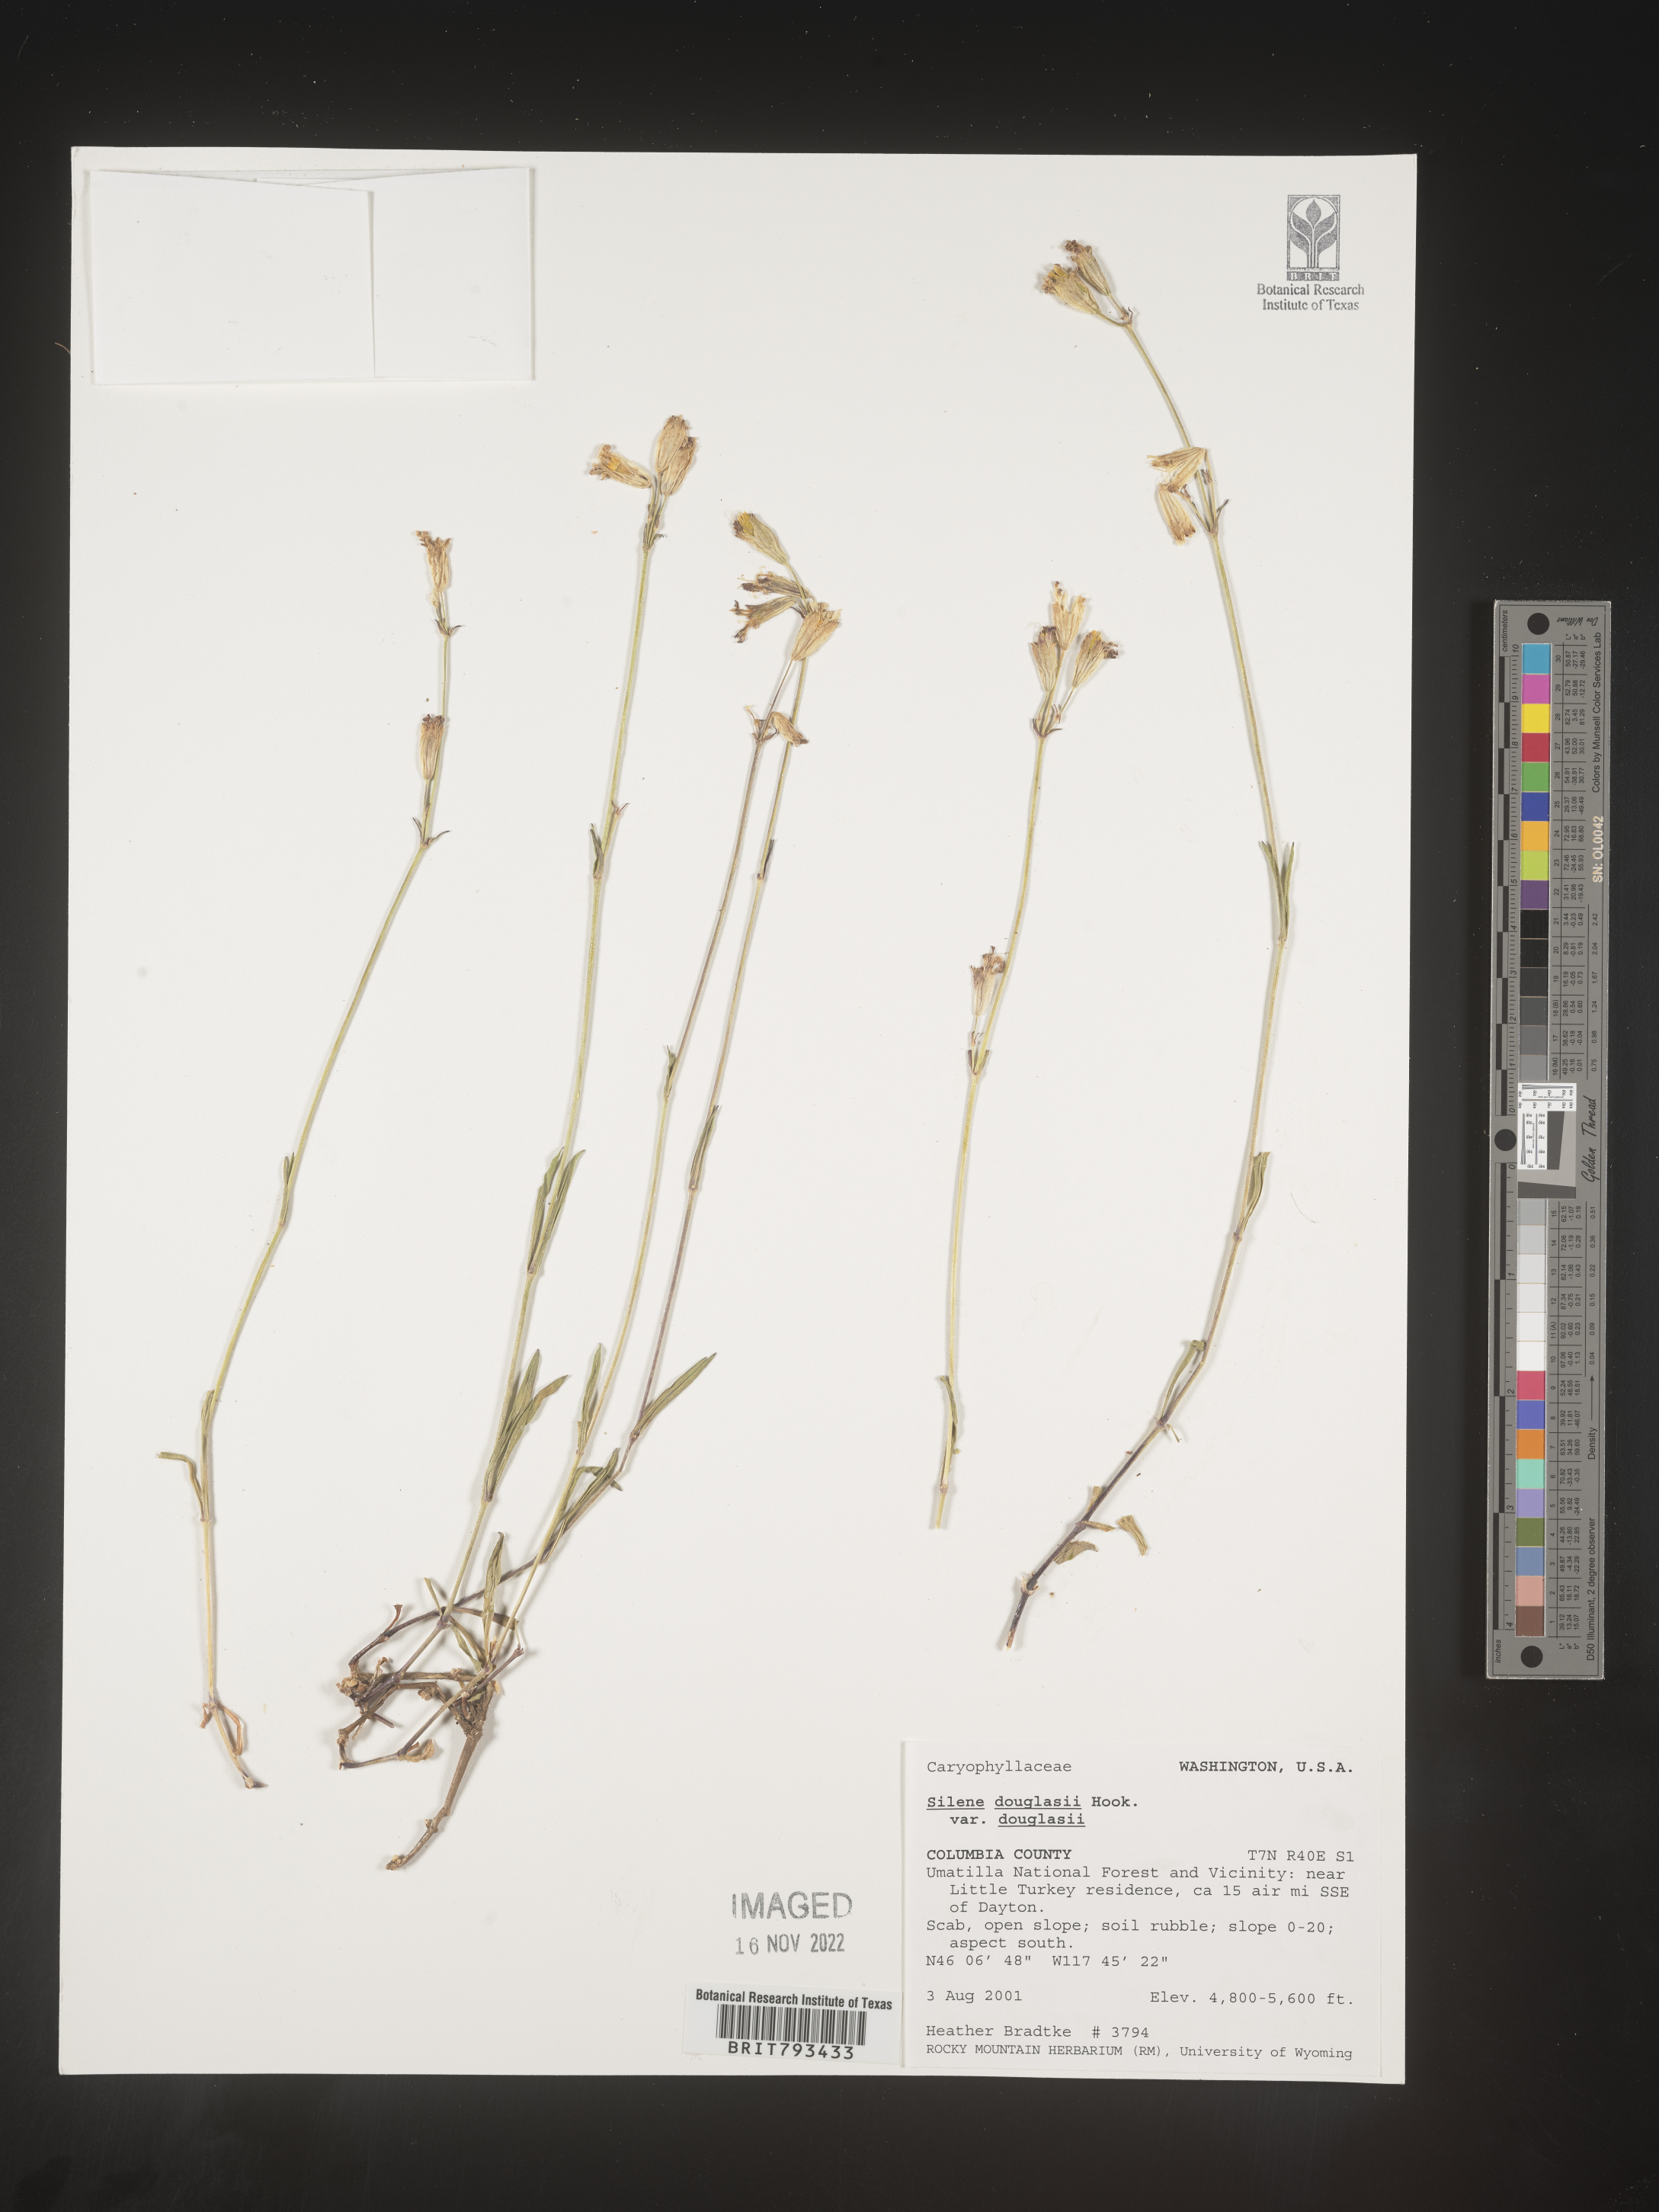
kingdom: Plantae
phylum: Tracheophyta
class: Magnoliopsida
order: Caryophyllales
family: Caryophyllaceae
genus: Silene
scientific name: Silene douglasii
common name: Douglas's catchfly
